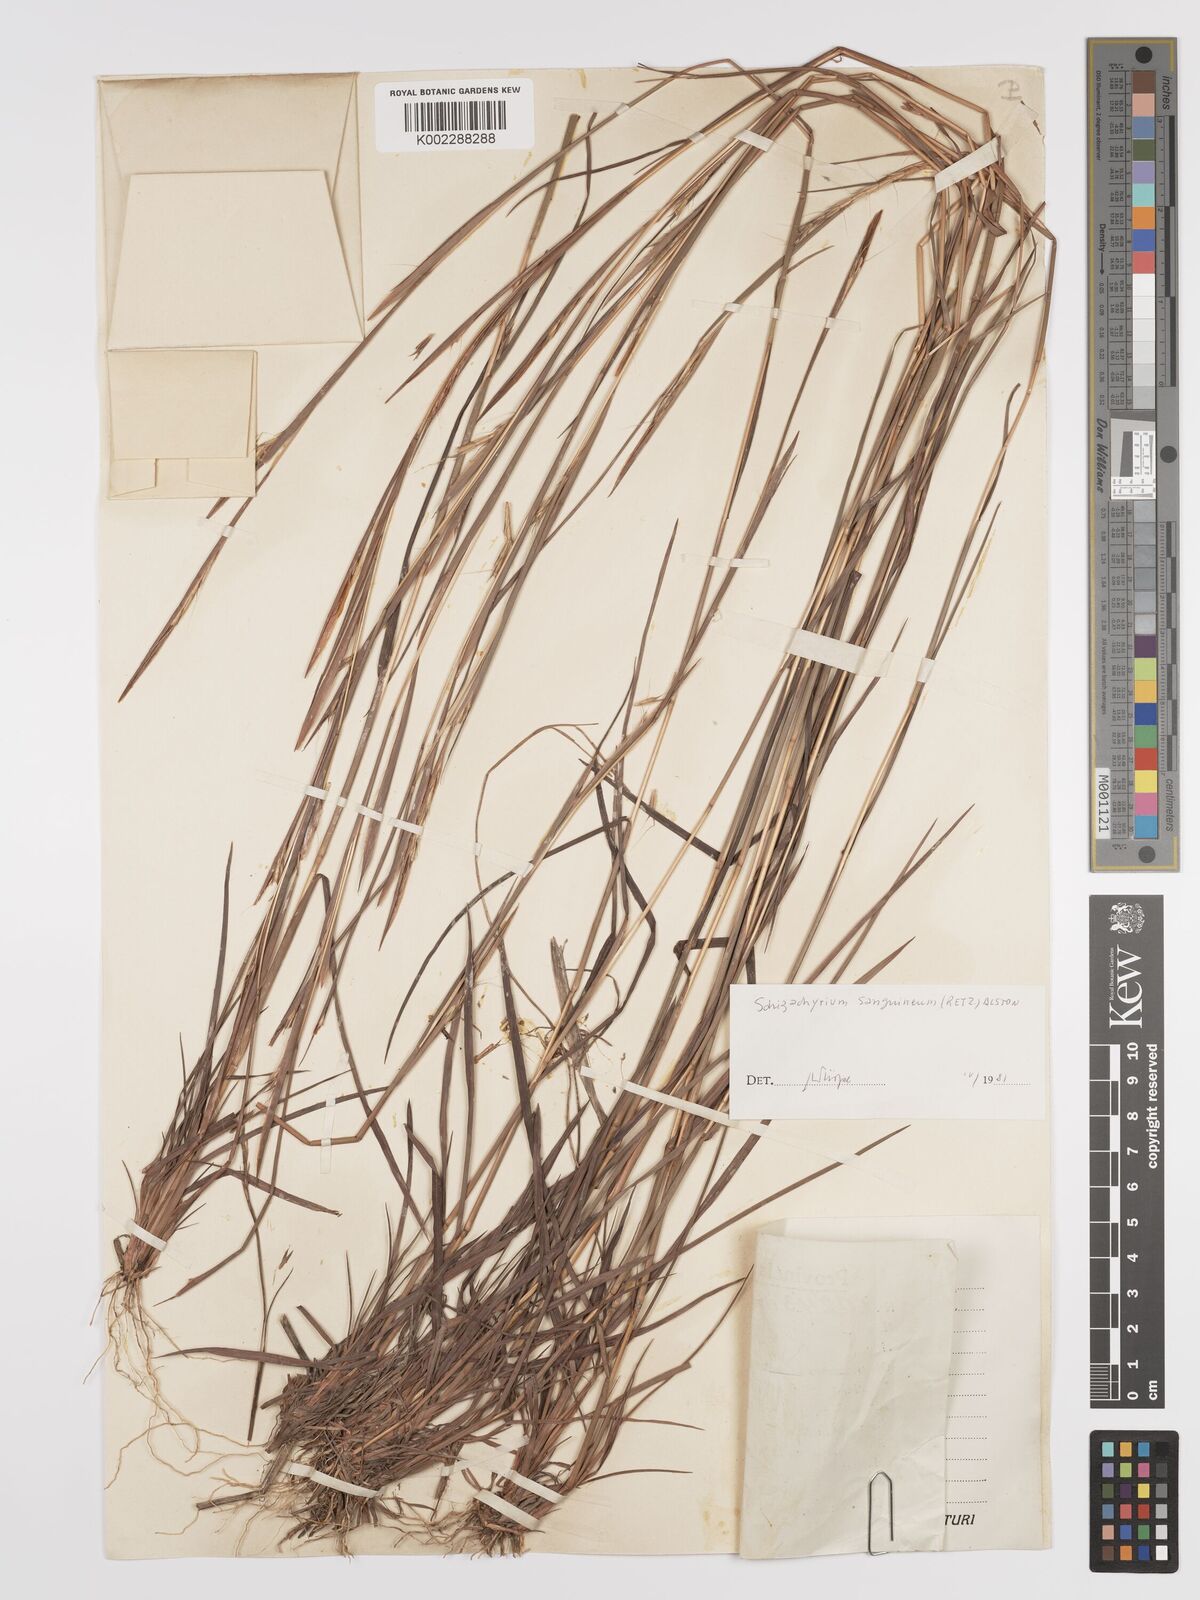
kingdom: Plantae
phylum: Tracheophyta
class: Liliopsida
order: Poales
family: Poaceae
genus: Schizachyrium
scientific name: Schizachyrium sanguineum
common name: Crimson bluestem
